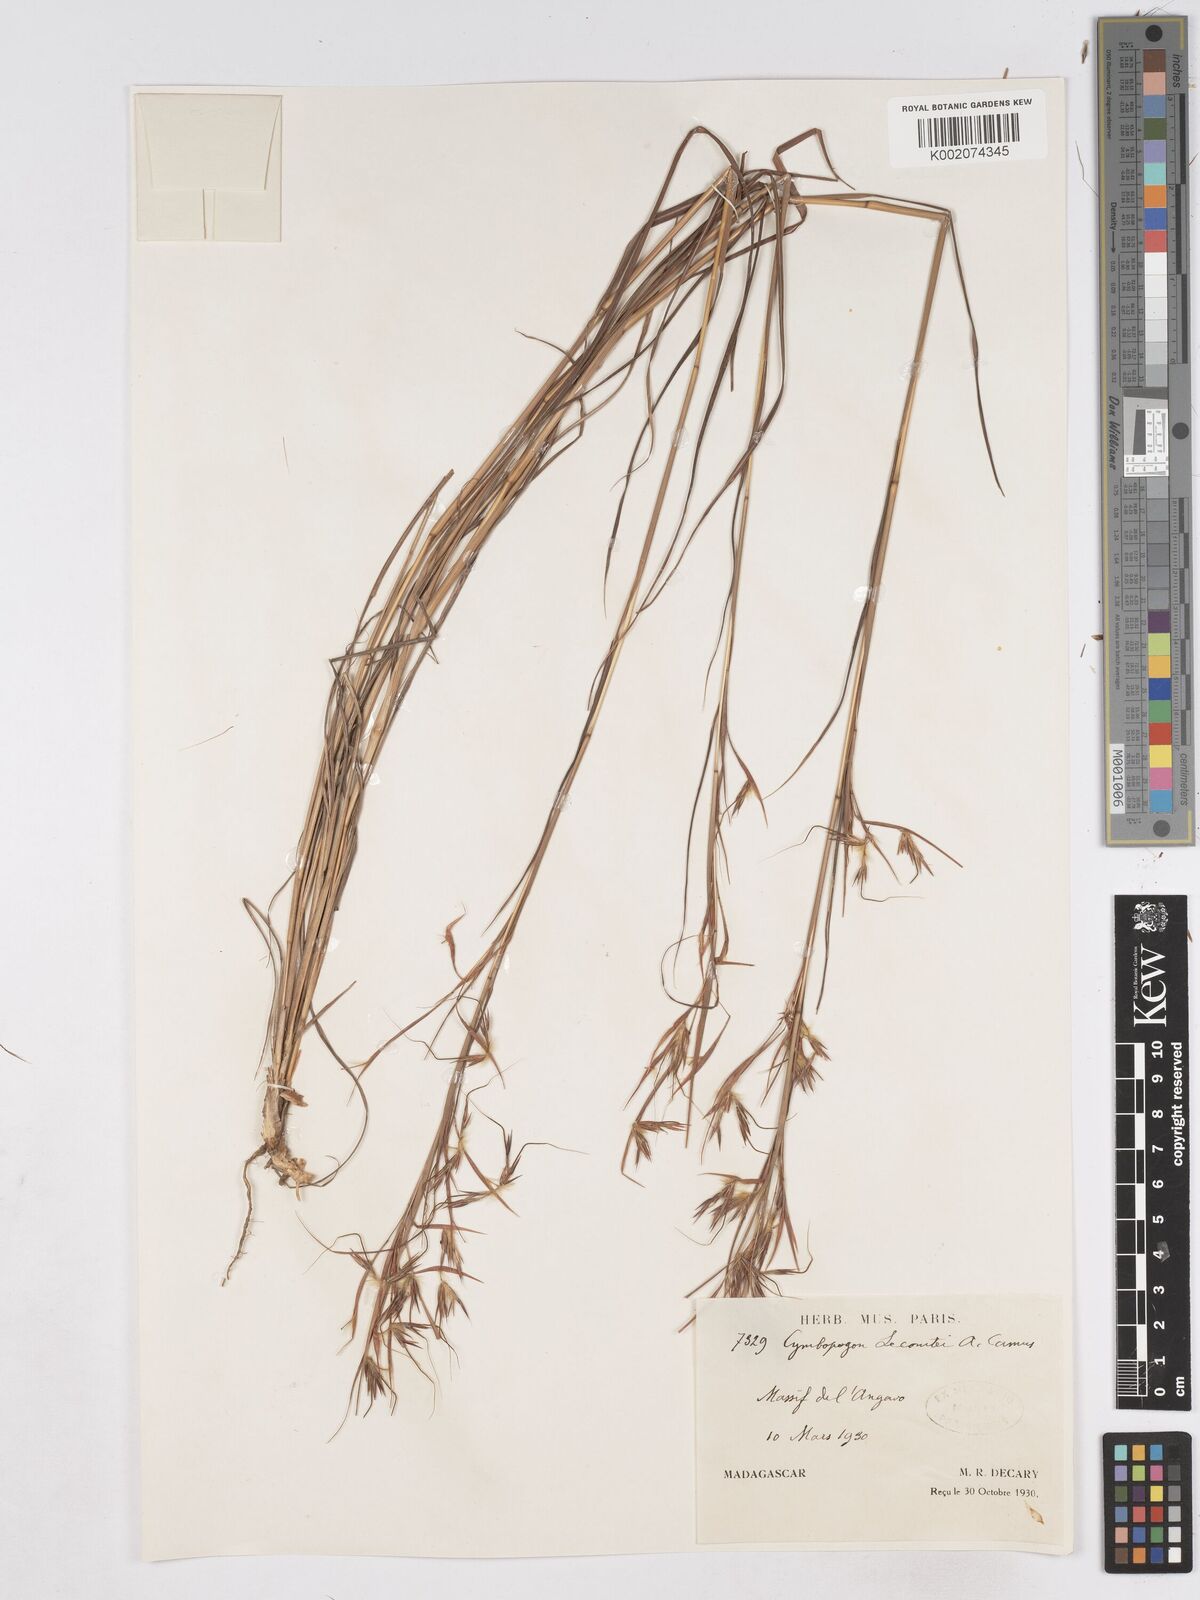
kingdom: Plantae
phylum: Tracheophyta
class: Liliopsida
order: Poales
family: Poaceae
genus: Hyparrhenia
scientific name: Hyparrhenia newtonii
